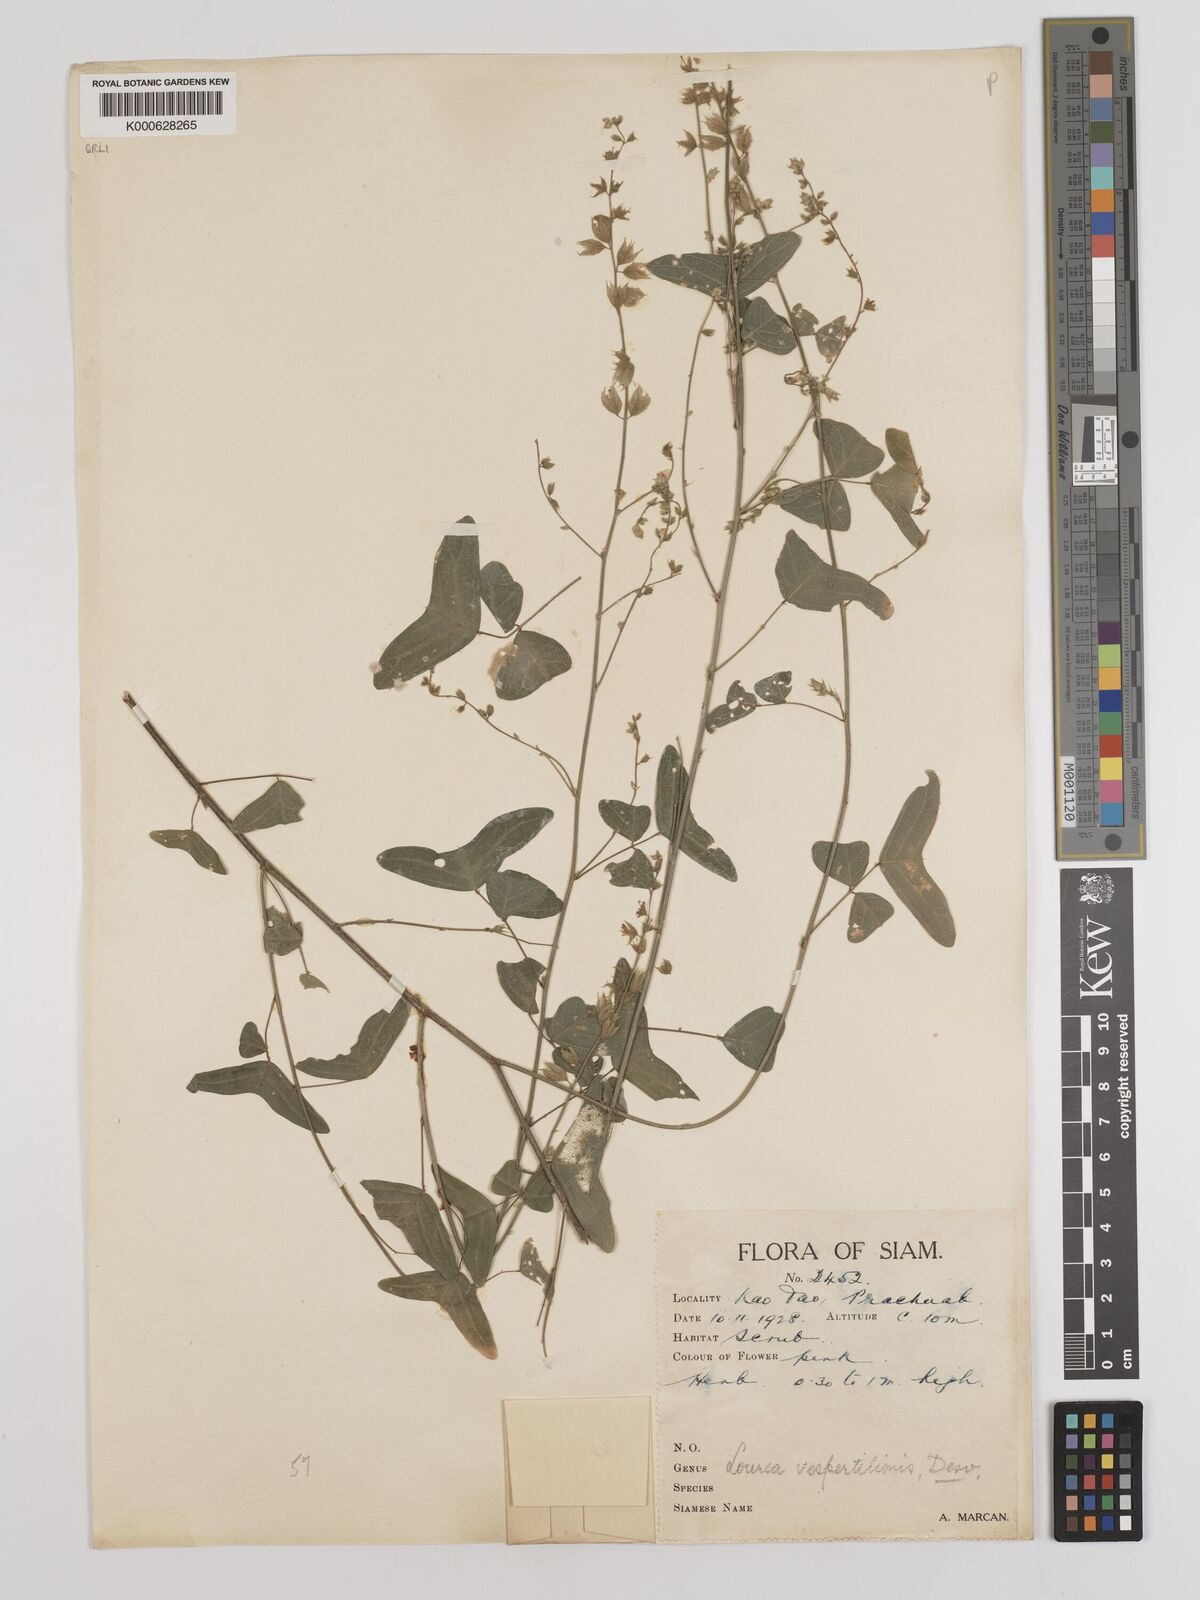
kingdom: Plantae
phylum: Tracheophyta
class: Magnoliopsida
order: Fabales
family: Fabaceae
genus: Christia
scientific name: Christia vespertilionis
